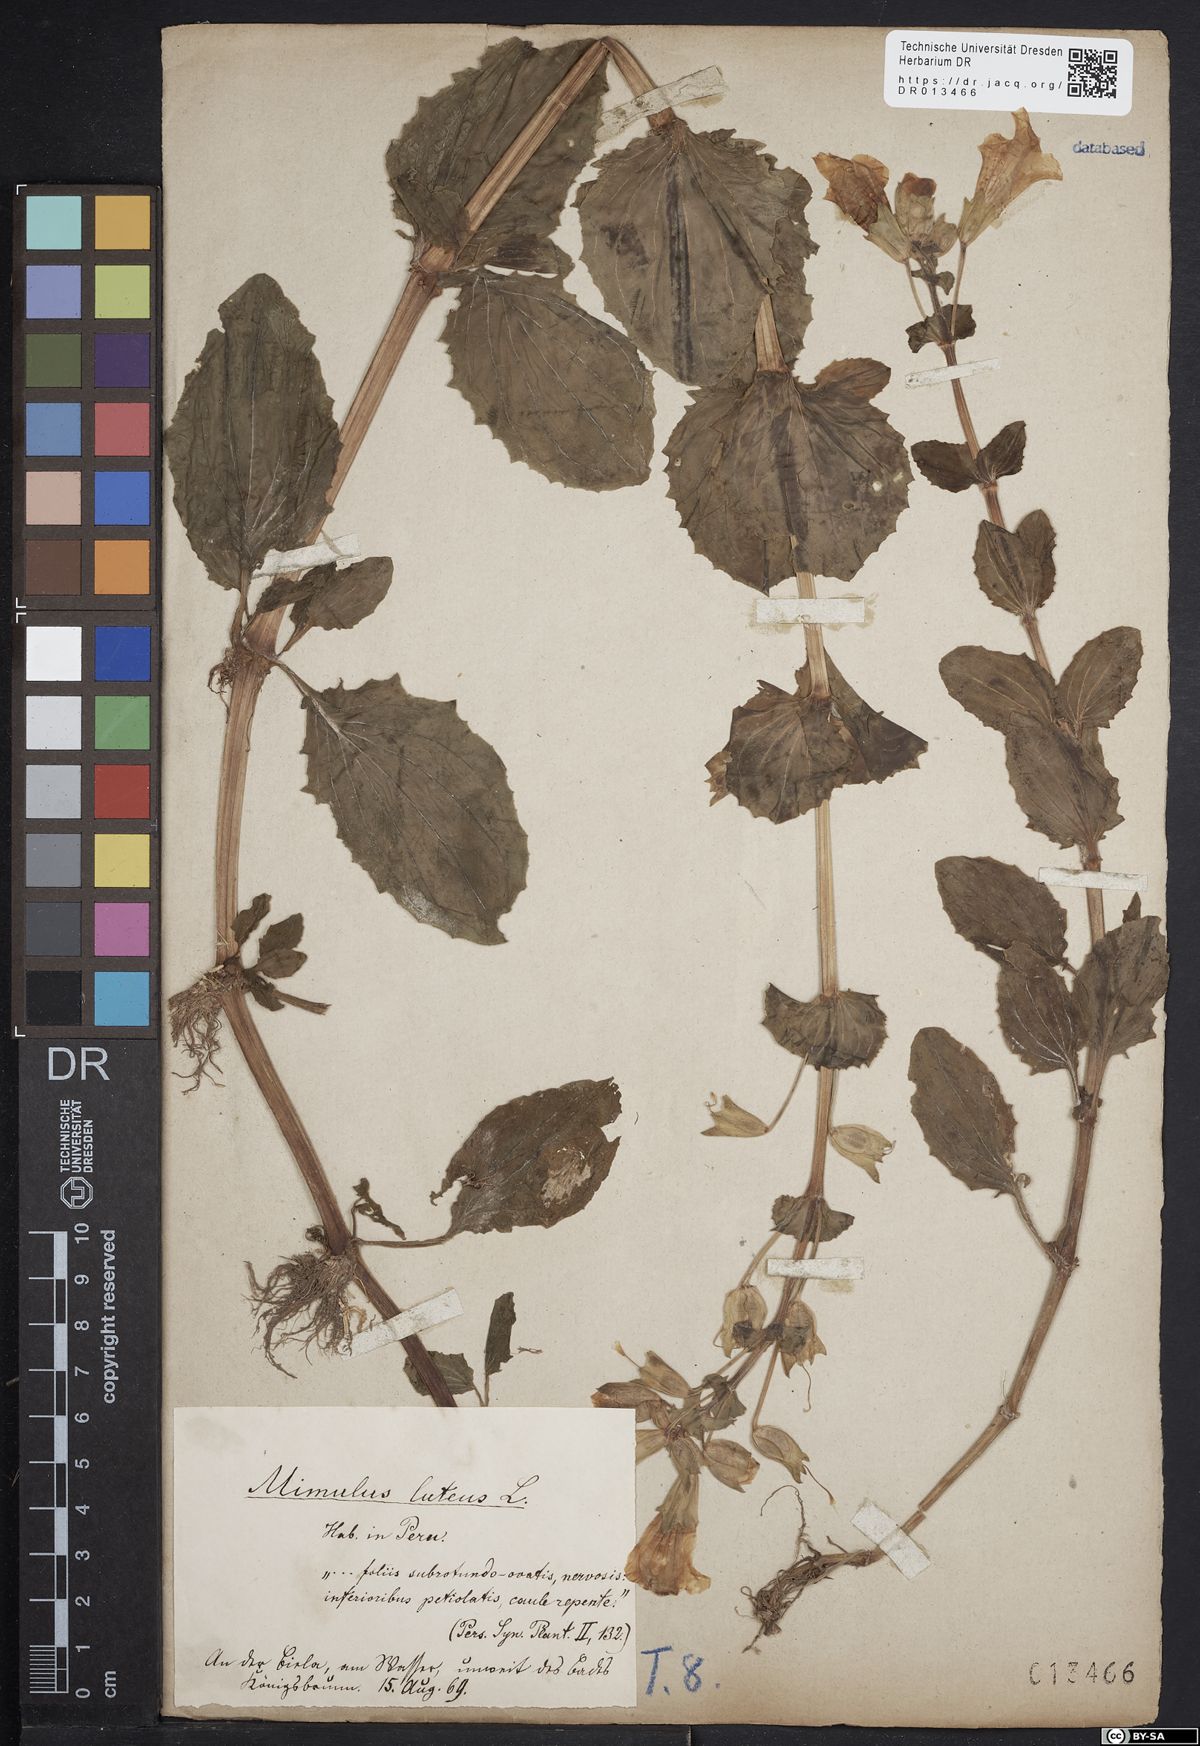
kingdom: Plantae
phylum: Tracheophyta
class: Magnoliopsida
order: Lamiales
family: Phrymaceae
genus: Erythranthe
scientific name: Erythranthe guttata
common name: Monkeyflower
